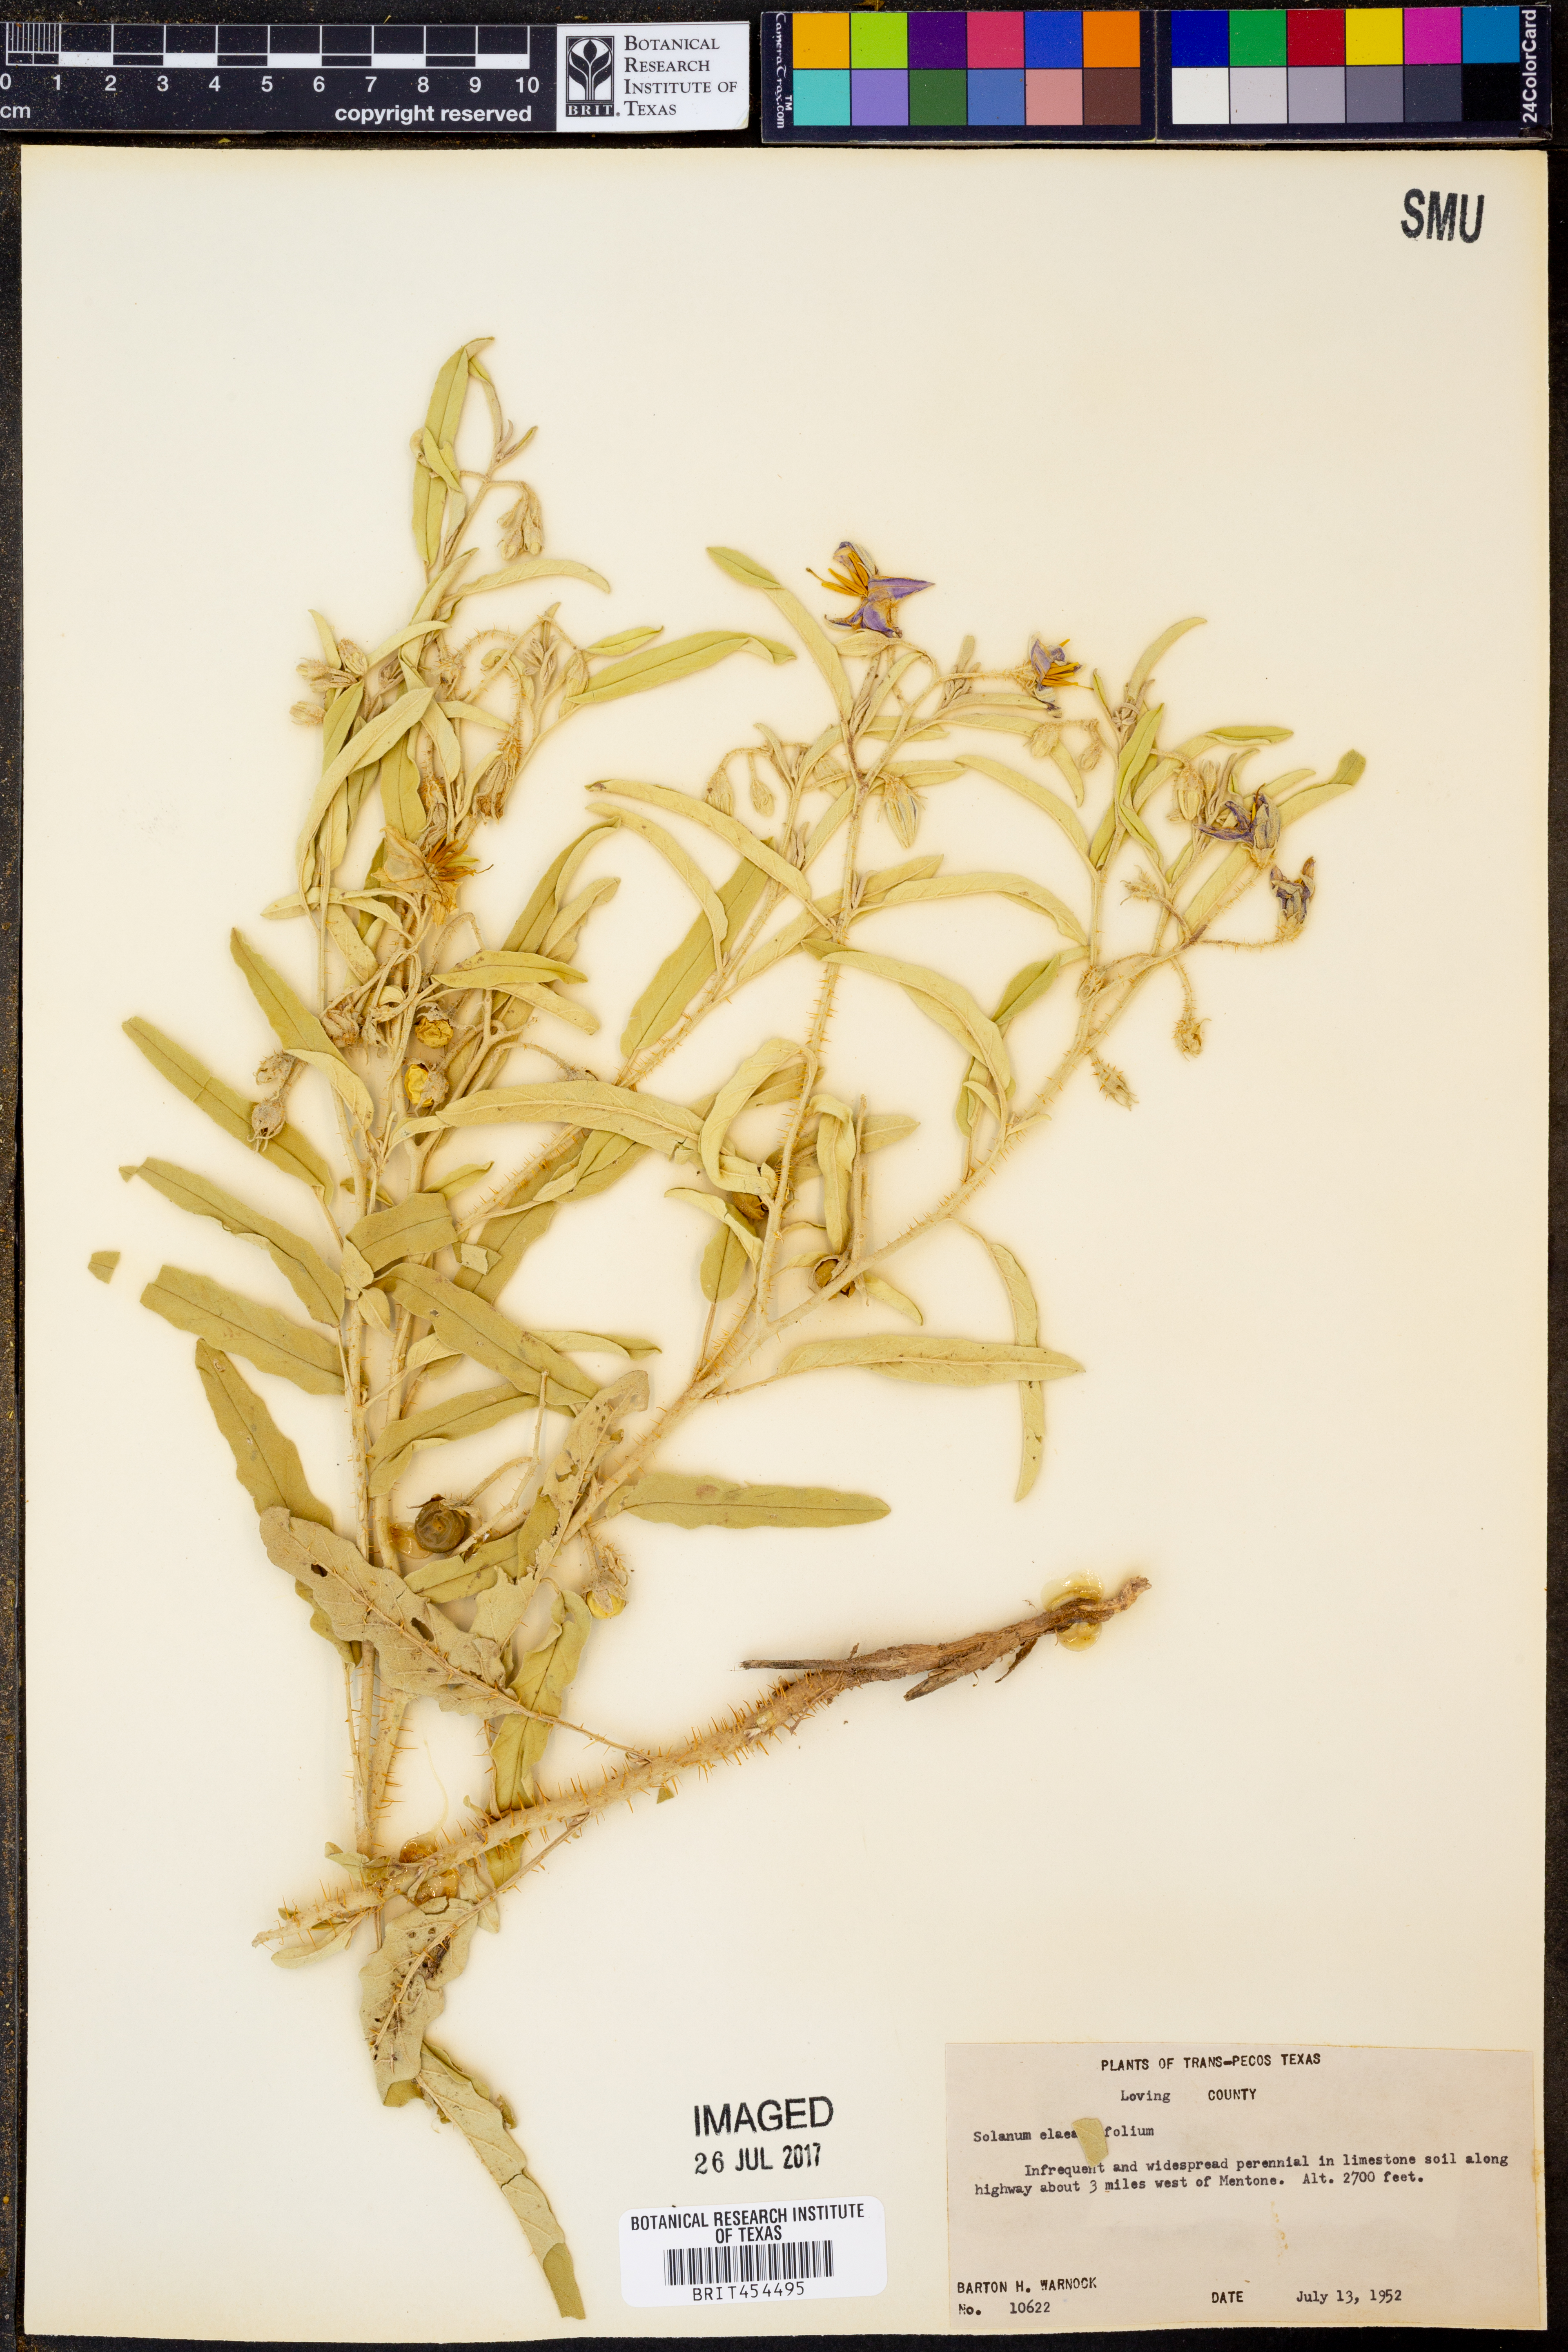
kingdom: Plantae
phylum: Tracheophyta
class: Magnoliopsida
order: Solanales
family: Solanaceae
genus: Solanum
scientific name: Solanum elaeagnifolium
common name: Silverleaf nightshade
